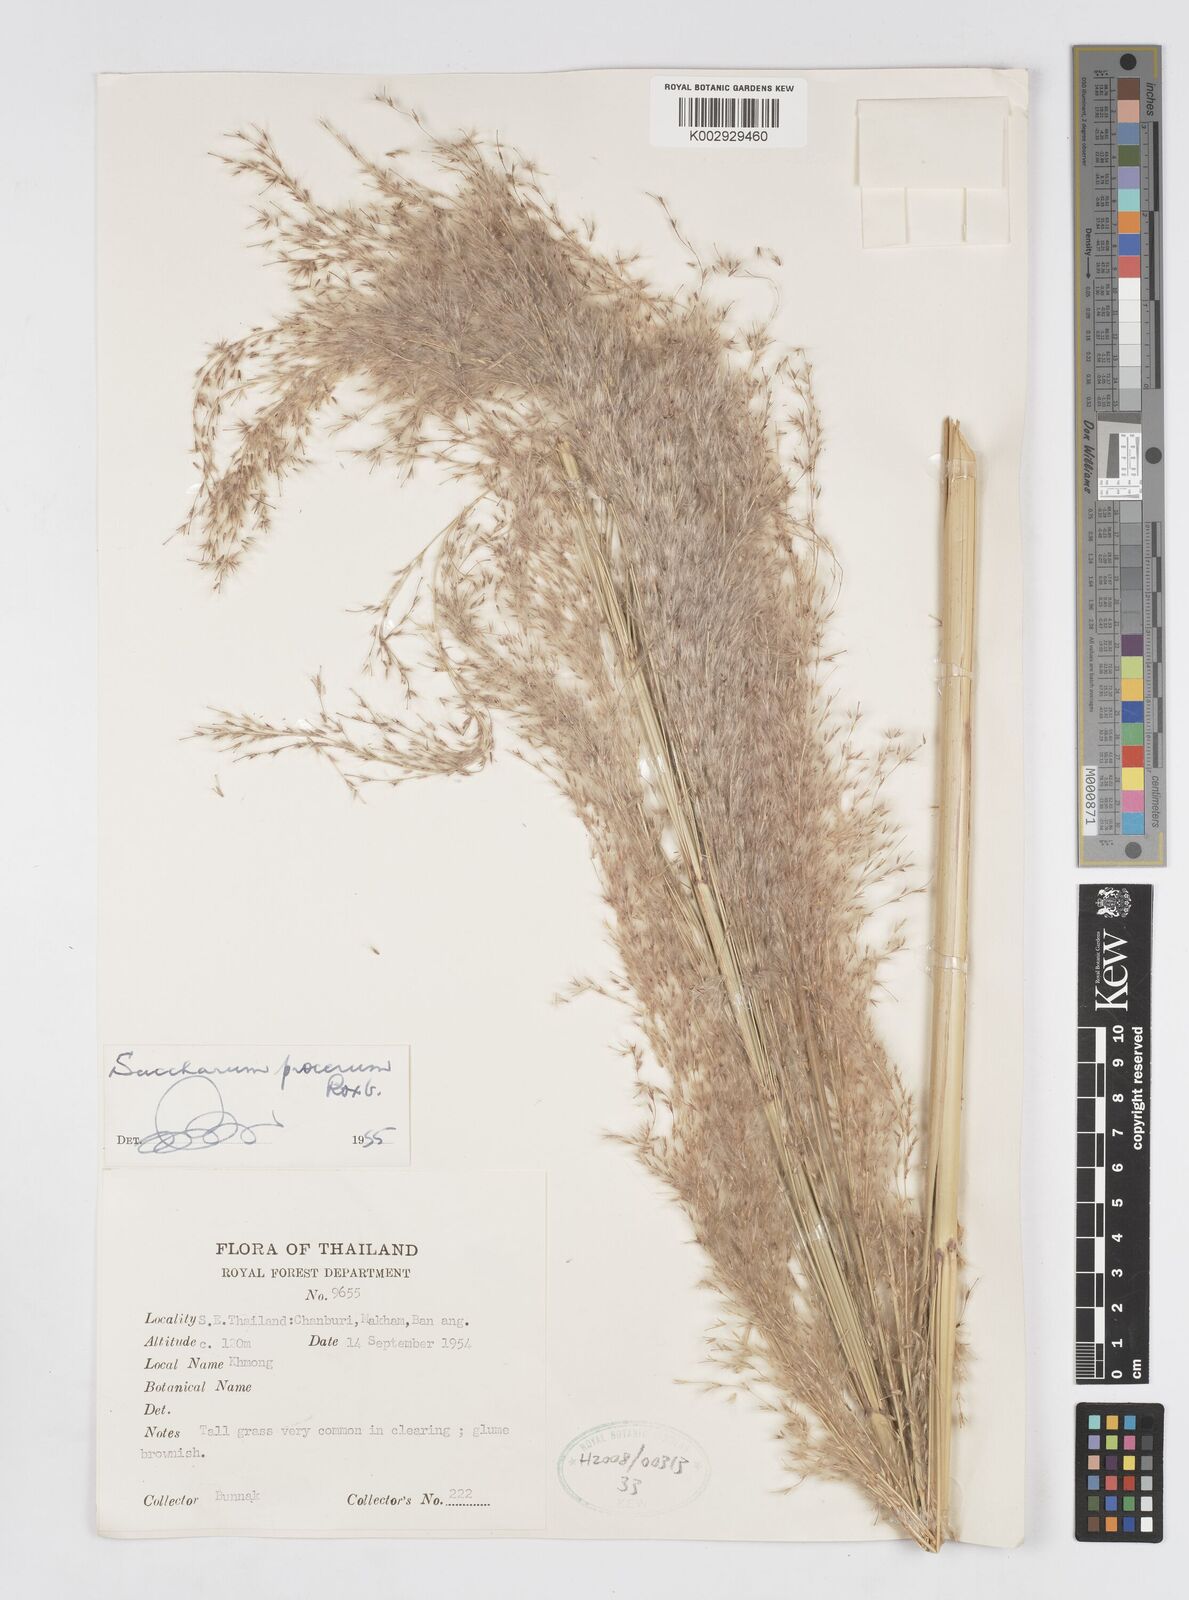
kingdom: Plantae
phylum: Tracheophyta
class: Liliopsida
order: Poales
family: Poaceae
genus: Saccharum
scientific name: Saccharum spontaneum
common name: Wild sugarcane
